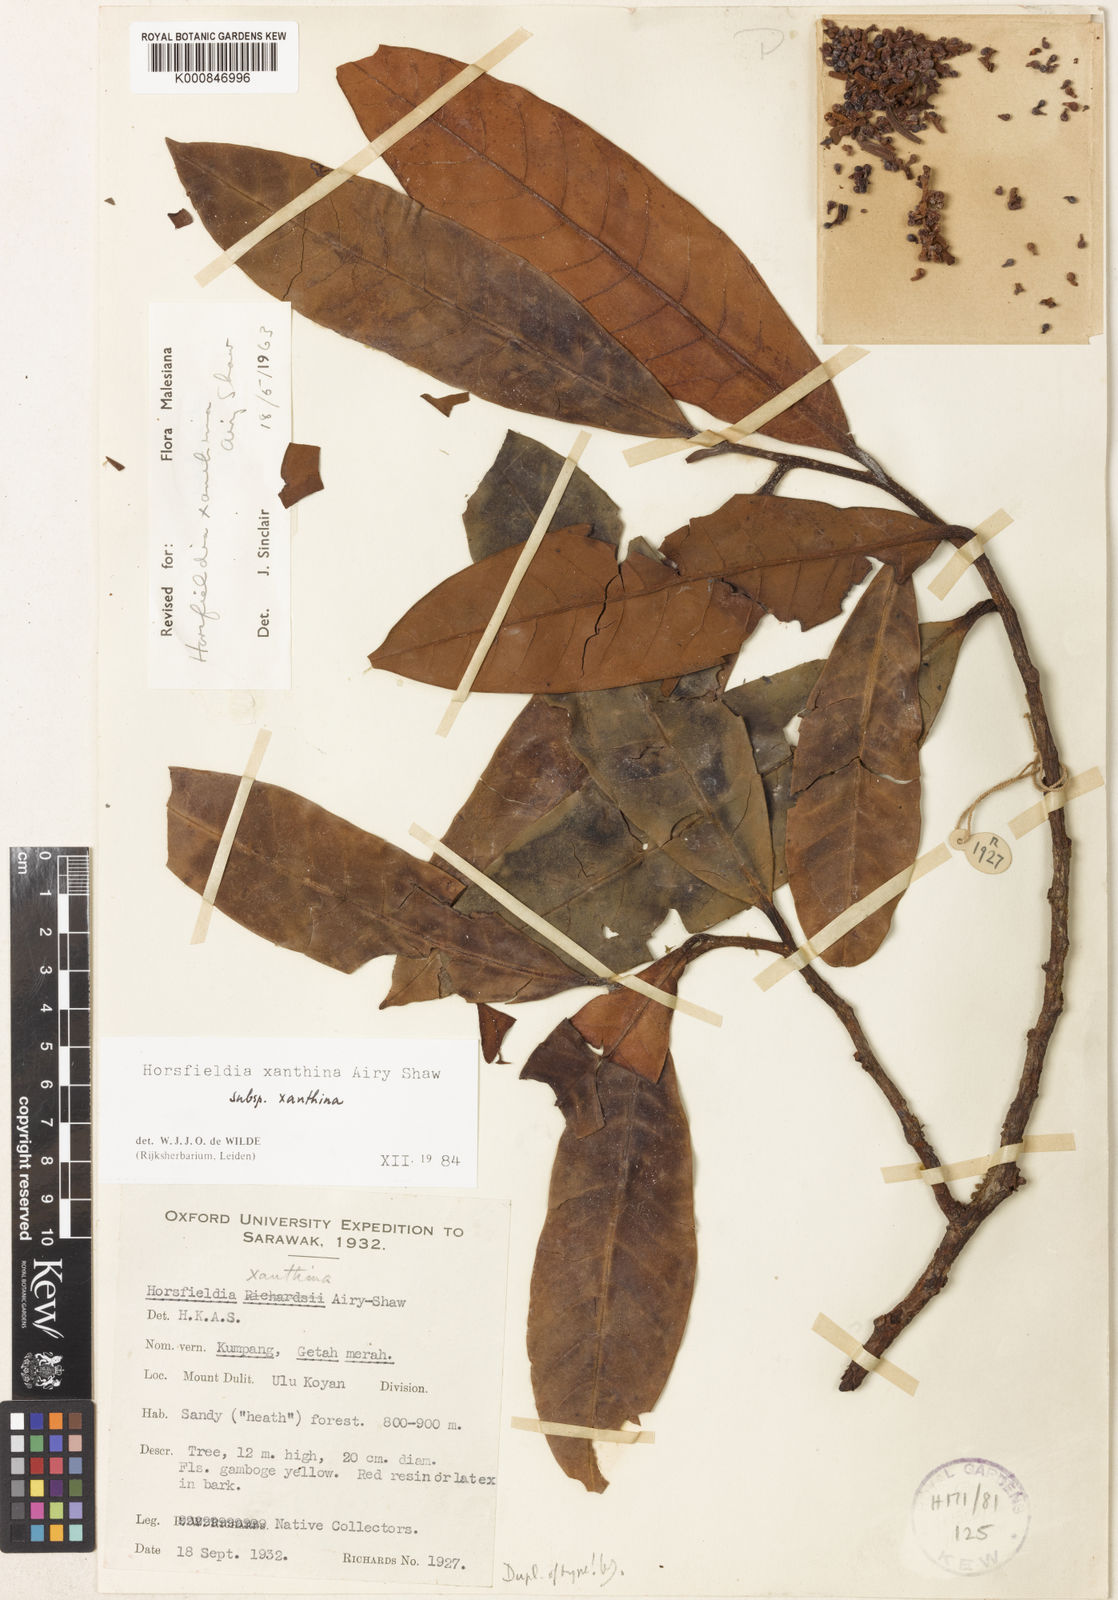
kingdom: Plantae
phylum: Tracheophyta
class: Magnoliopsida
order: Magnoliales
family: Myristicaceae
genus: Horsfieldia
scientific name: Horsfieldia xanthina
